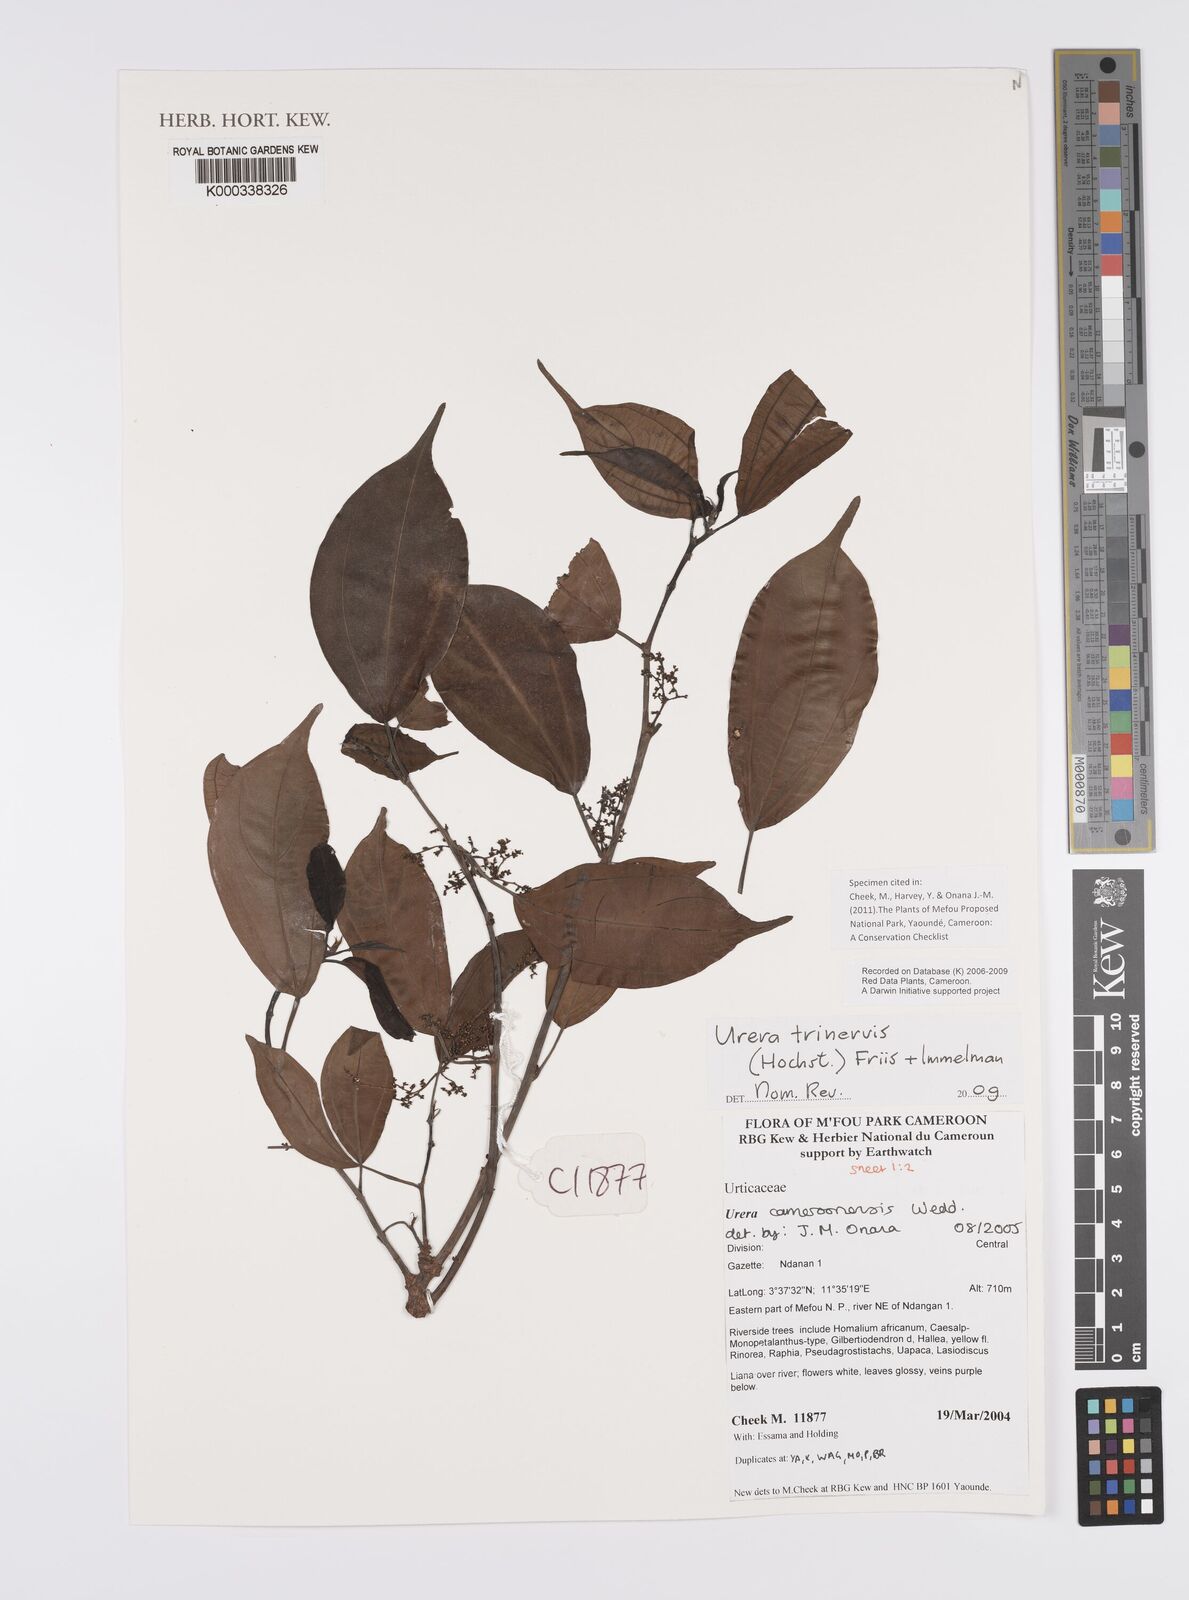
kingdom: Plantae
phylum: Tracheophyta
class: Magnoliopsida
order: Rosales
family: Urticaceae
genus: Scepocarpus
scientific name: Scepocarpus trinervis
